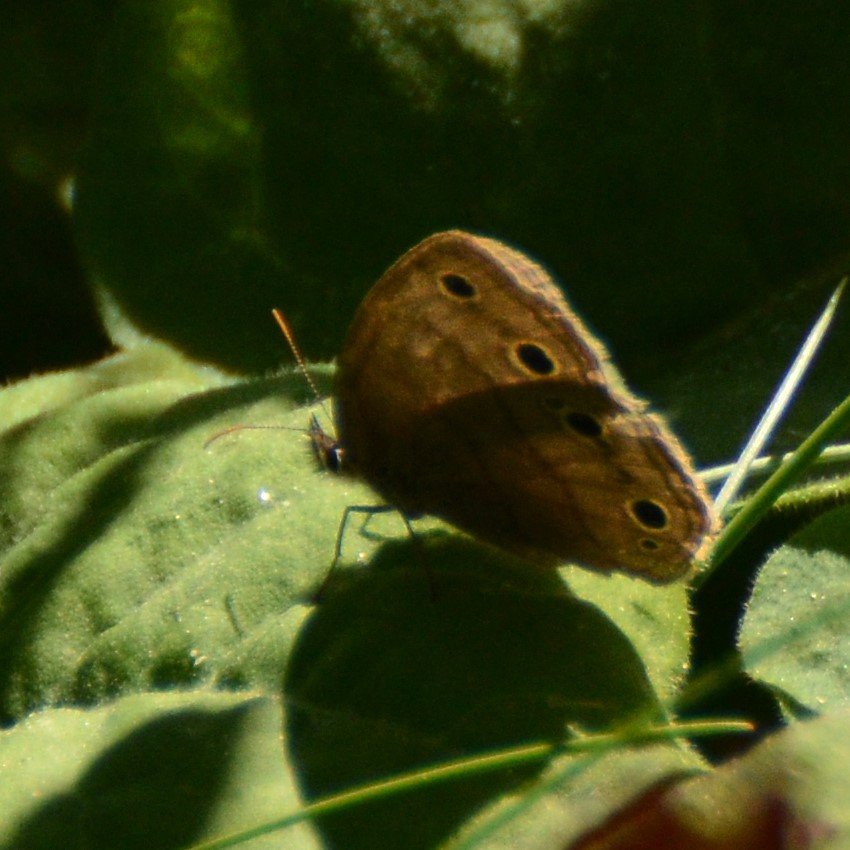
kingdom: Animalia
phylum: Arthropoda
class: Insecta
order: Lepidoptera
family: Nymphalidae
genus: Euptychia
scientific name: Euptychia cymela
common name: Little Wood Satyr
